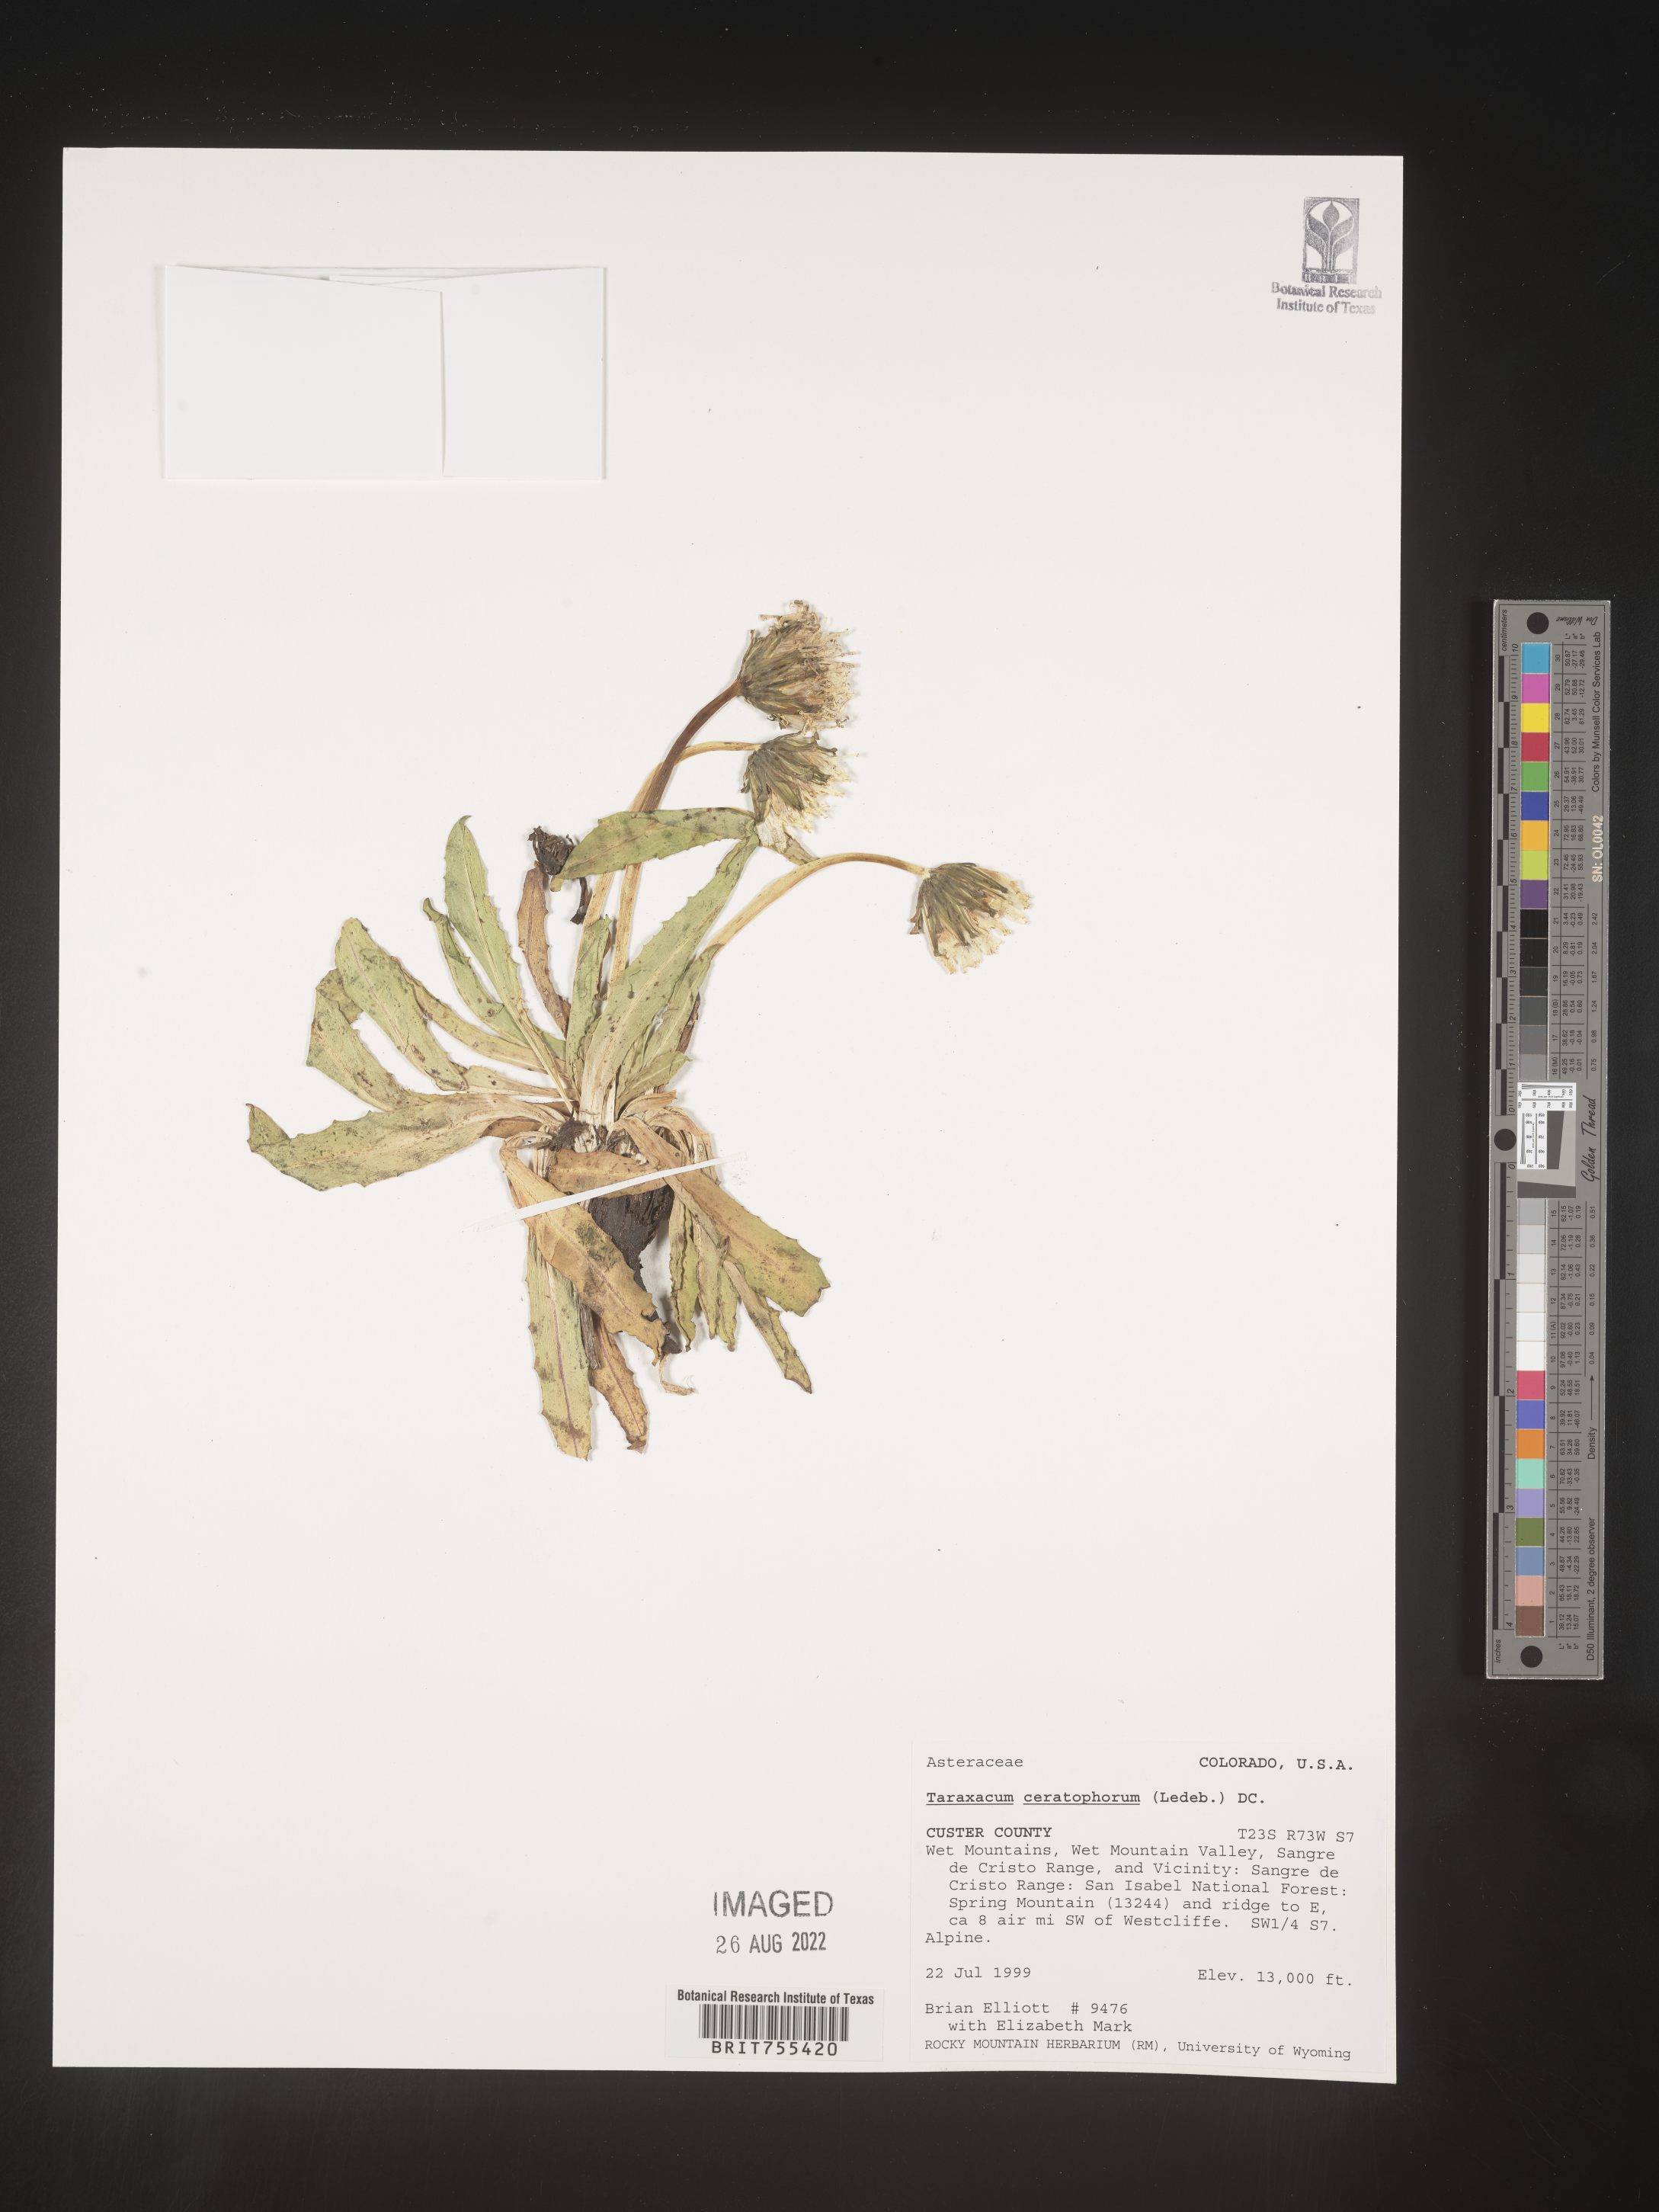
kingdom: Plantae
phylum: Tracheophyta
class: Magnoliopsida
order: Asterales
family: Asteraceae
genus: Taraxacum
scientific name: Taraxacum
